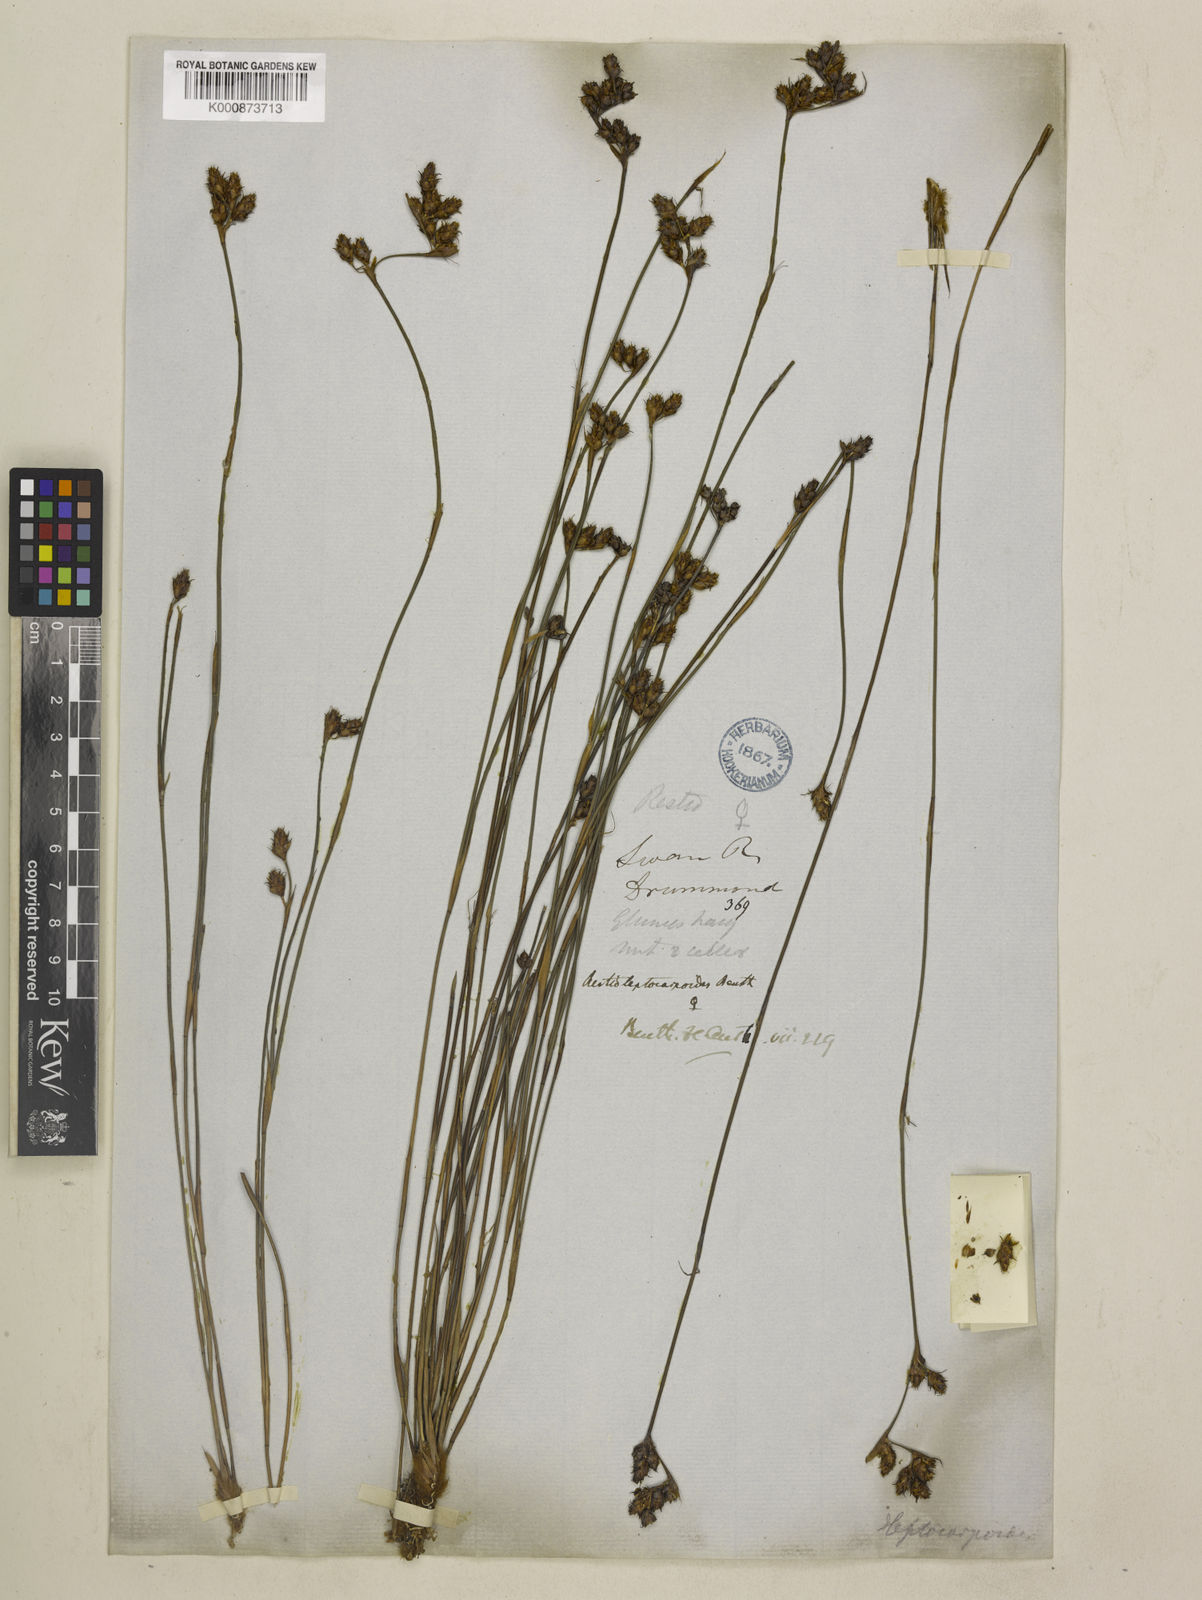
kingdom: Plantae
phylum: Tracheophyta
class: Liliopsida
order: Poales
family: Restionaceae
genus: Cytogonidium
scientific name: Cytogonidium leptocarpoides
